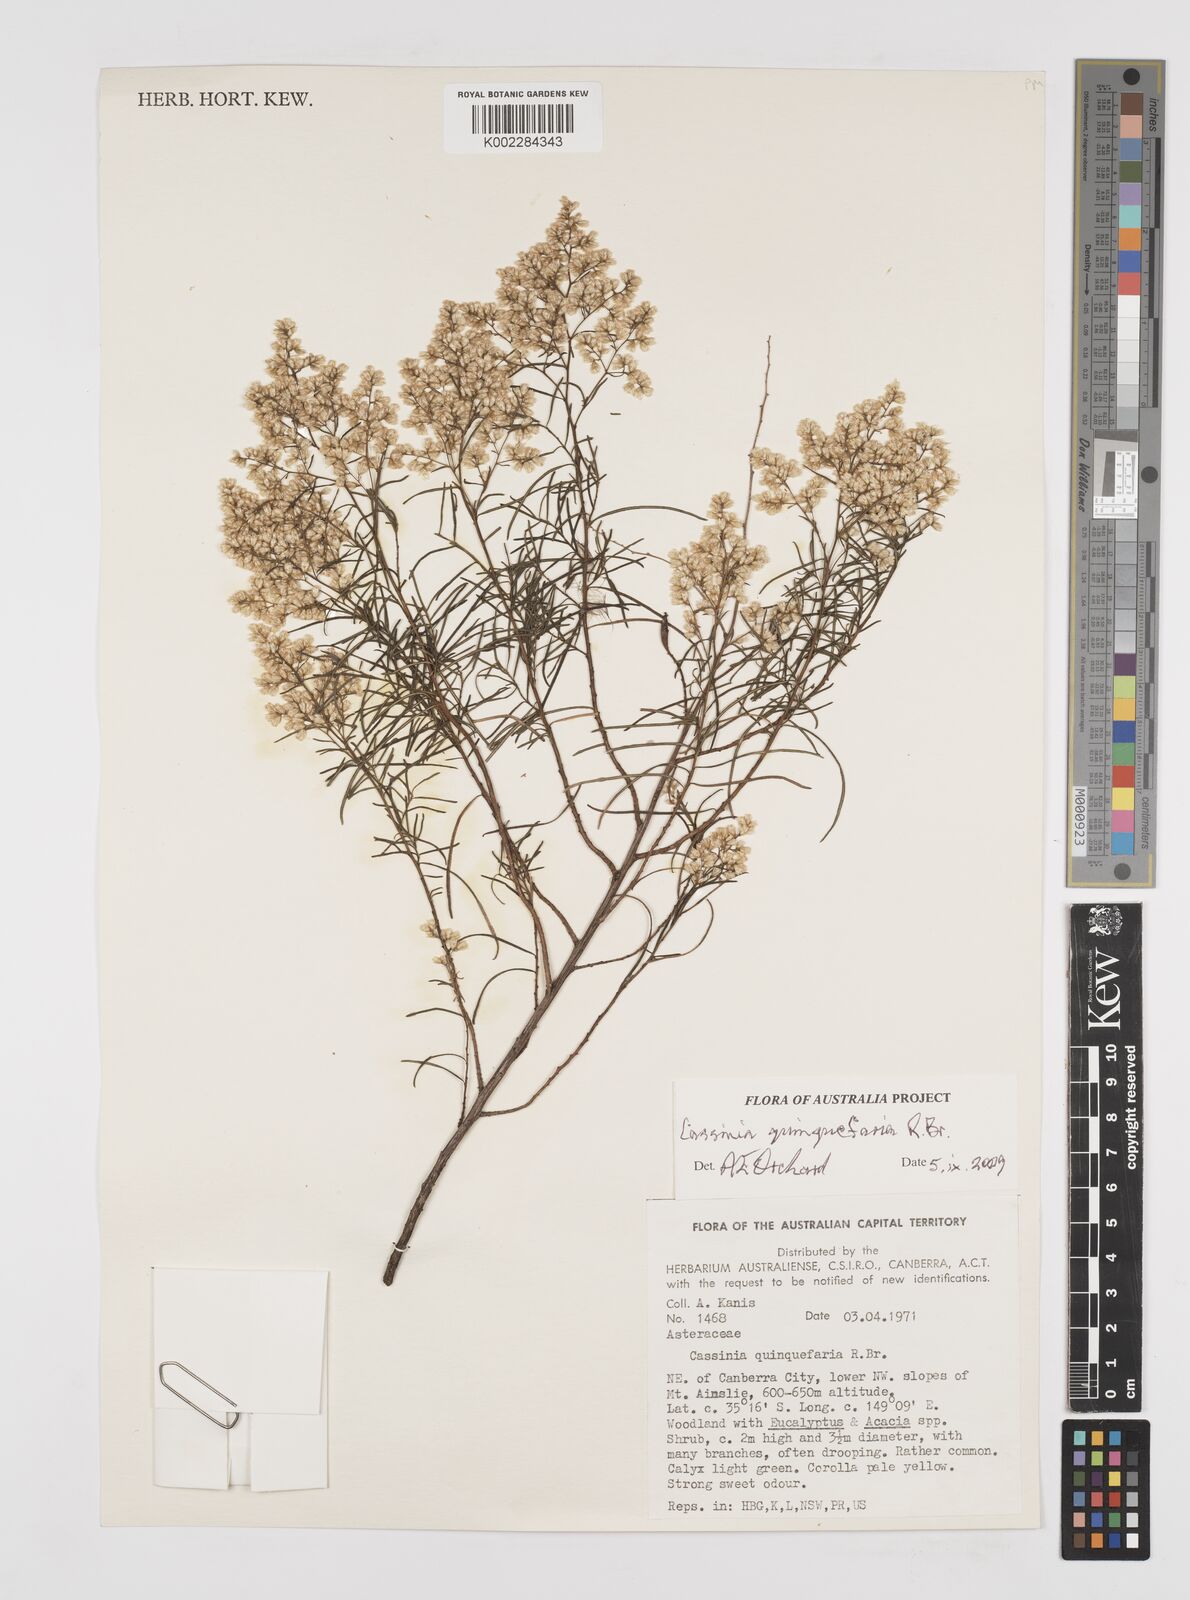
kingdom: Plantae
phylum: Tracheophyta
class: Magnoliopsida
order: Asterales
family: Asteraceae
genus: Cassinia
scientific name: Cassinia quinquefaria
